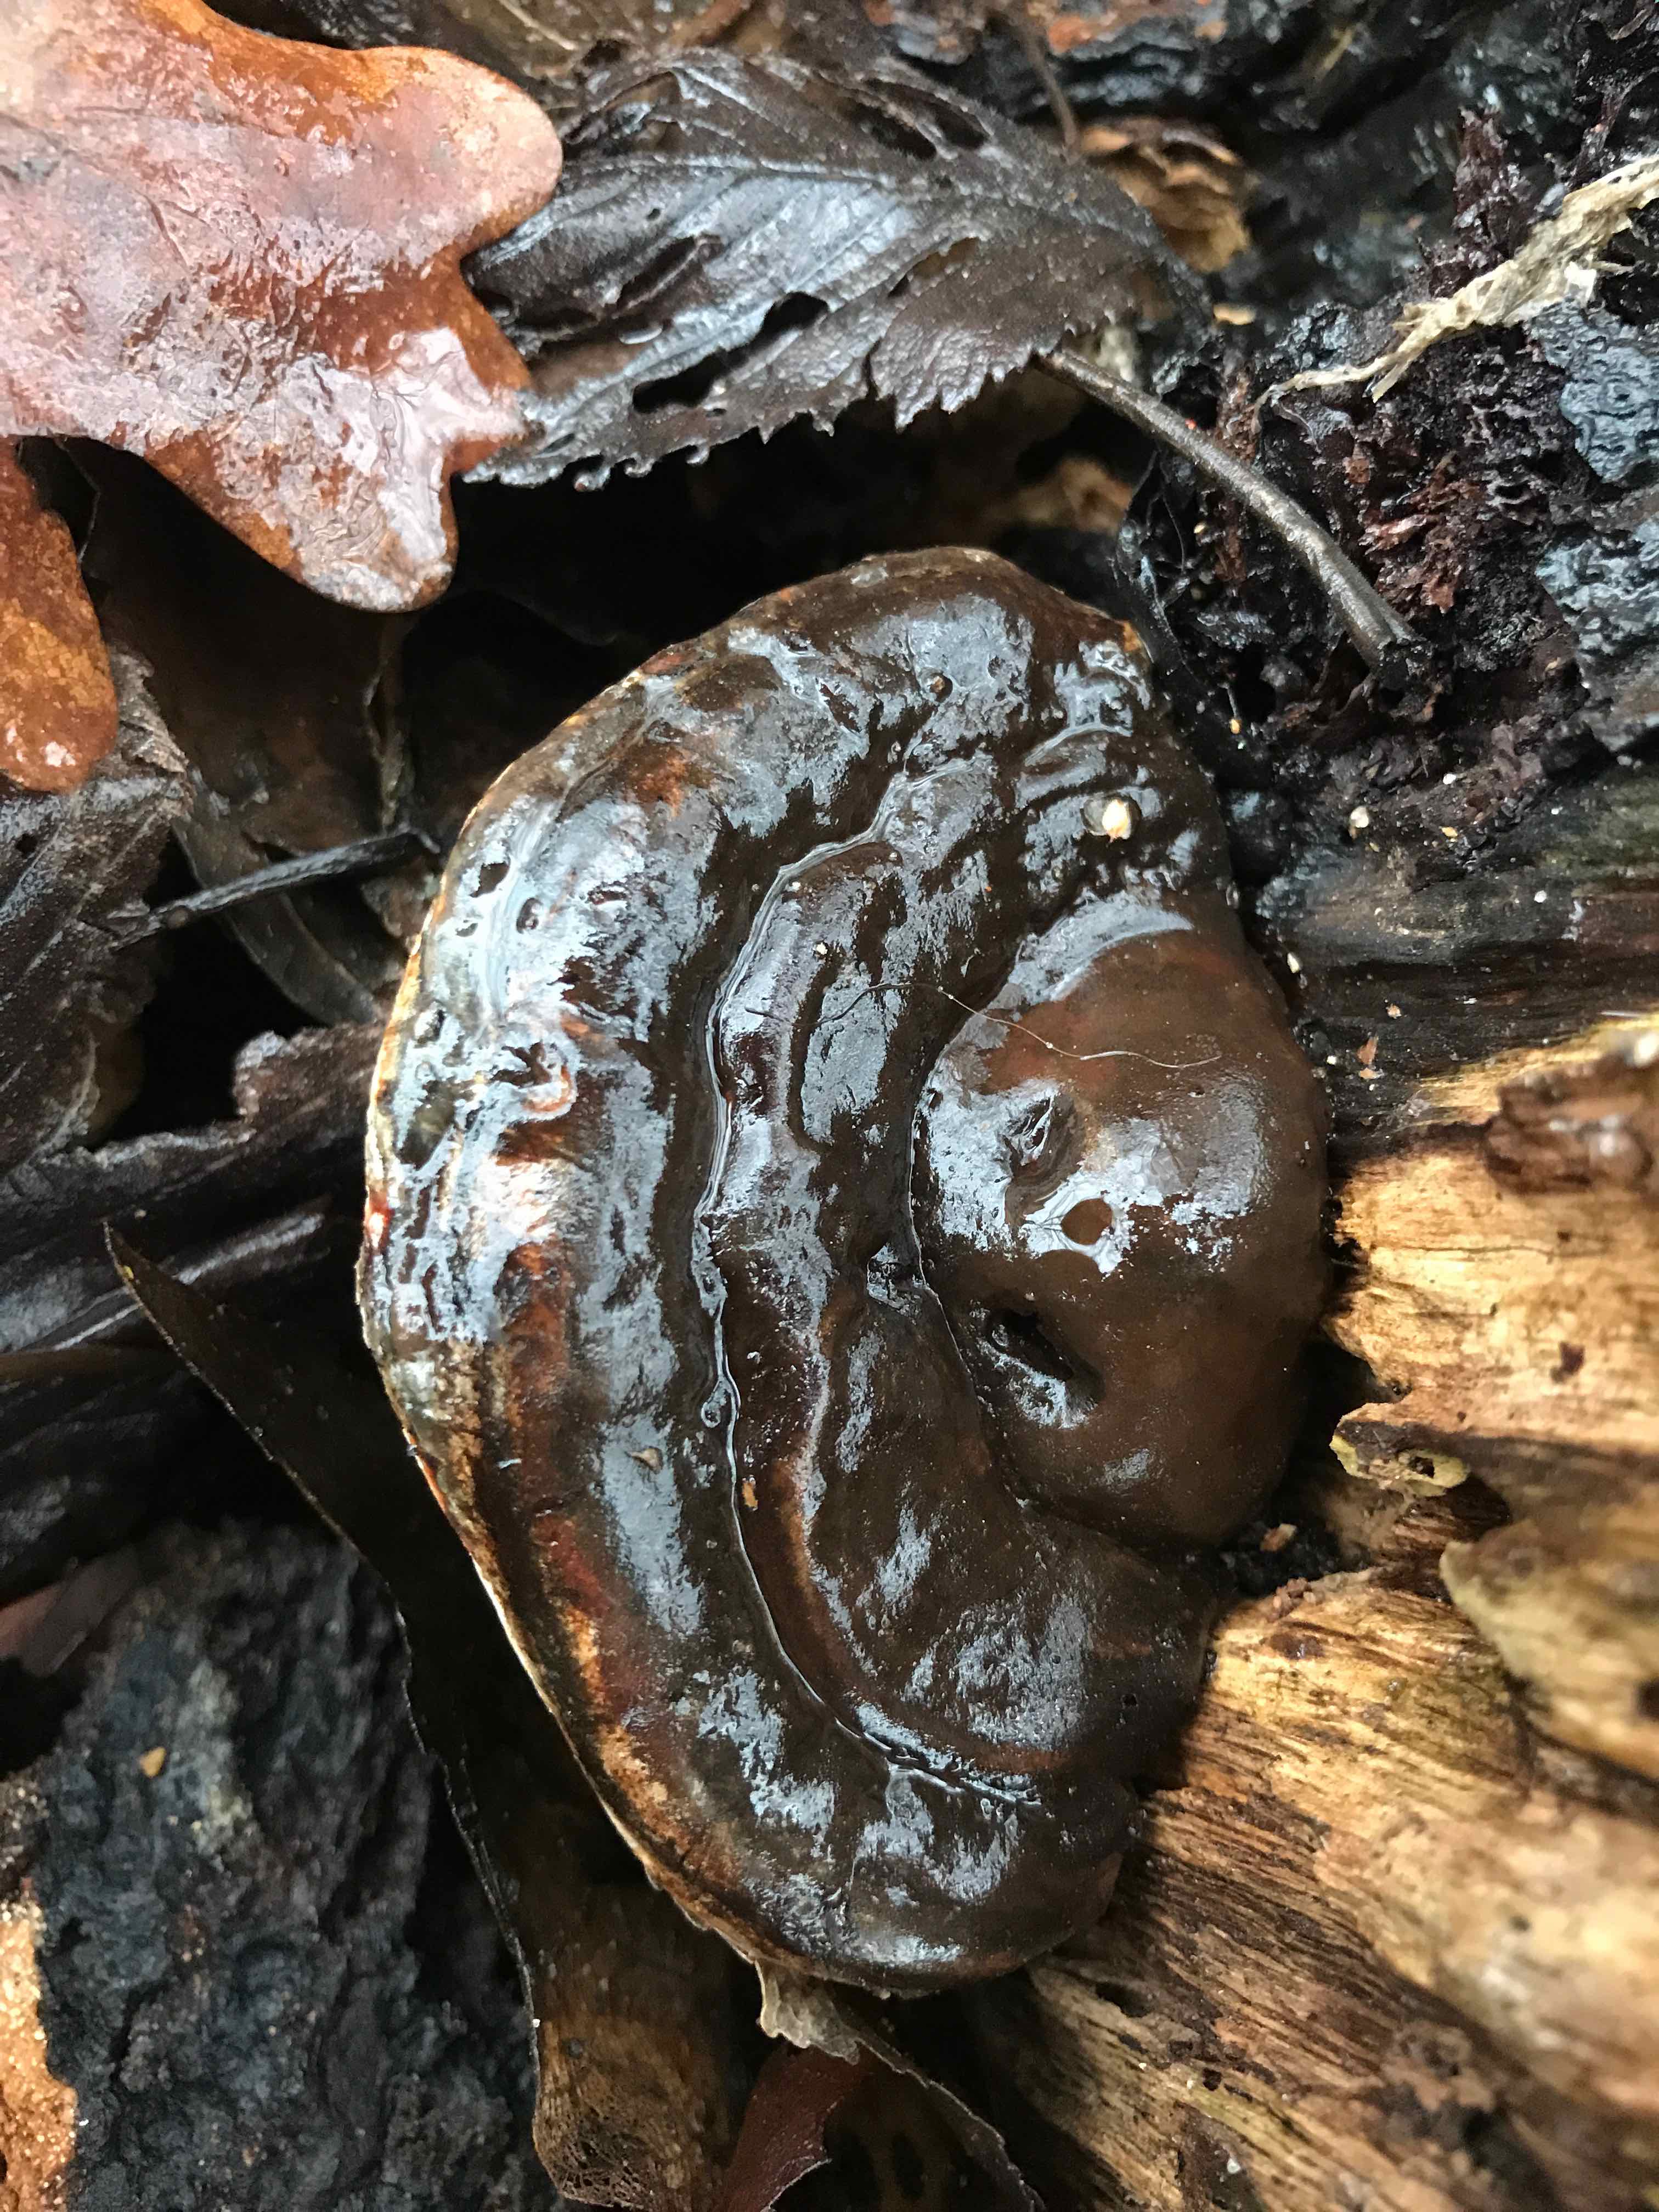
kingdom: Fungi
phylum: Basidiomycota
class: Agaricomycetes
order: Polyporales
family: Polyporaceae
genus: Ganoderma
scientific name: Ganoderma applanatum
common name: flad lakporesvamp
